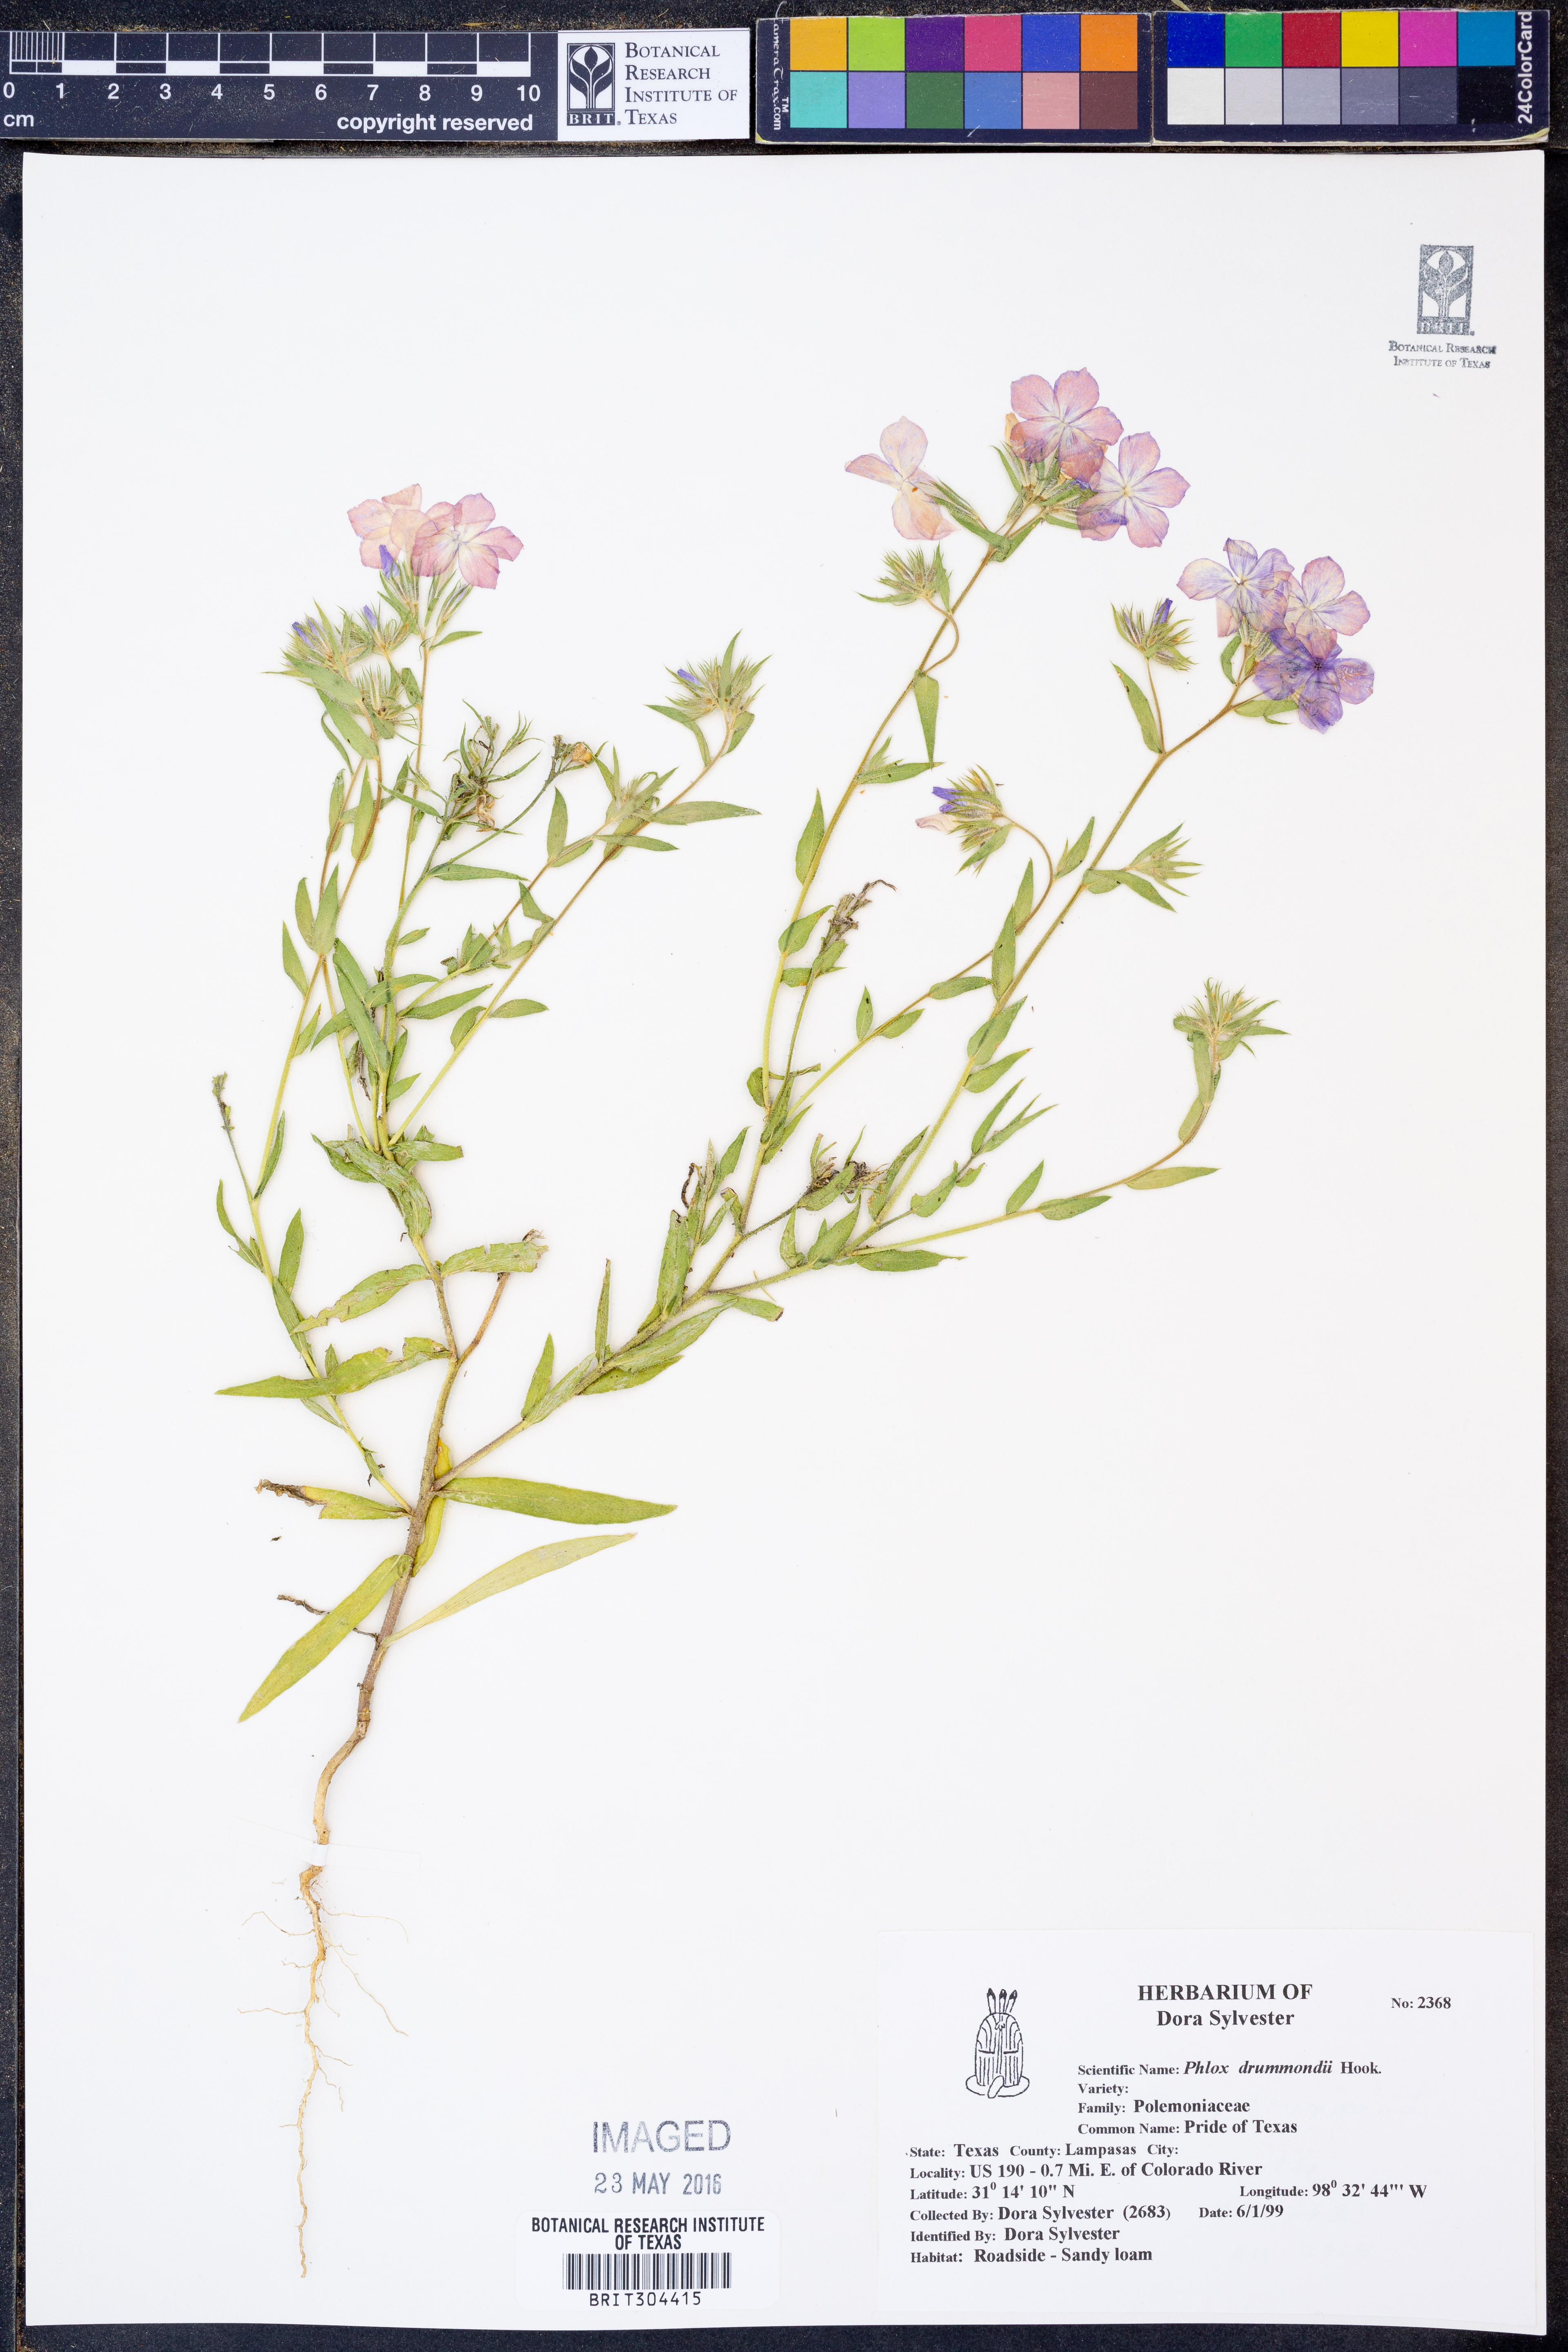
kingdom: Plantae
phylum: Tracheophyta
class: Magnoliopsida
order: Ericales
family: Polemoniaceae
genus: Phlox
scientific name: Phlox drummondii
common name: Drummond's phlox
